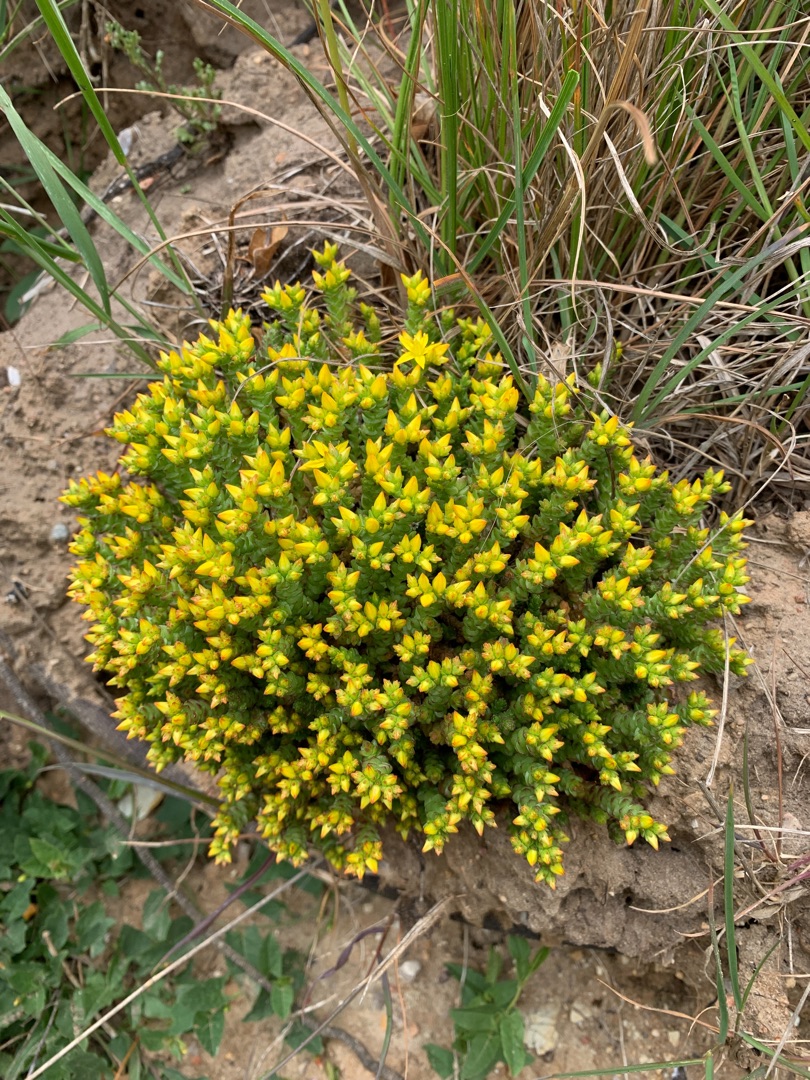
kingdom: Plantae
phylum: Tracheophyta
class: Magnoliopsida
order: Saxifragales
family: Crassulaceae
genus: Sedum
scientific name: Sedum acre
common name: Bidende stenurt
